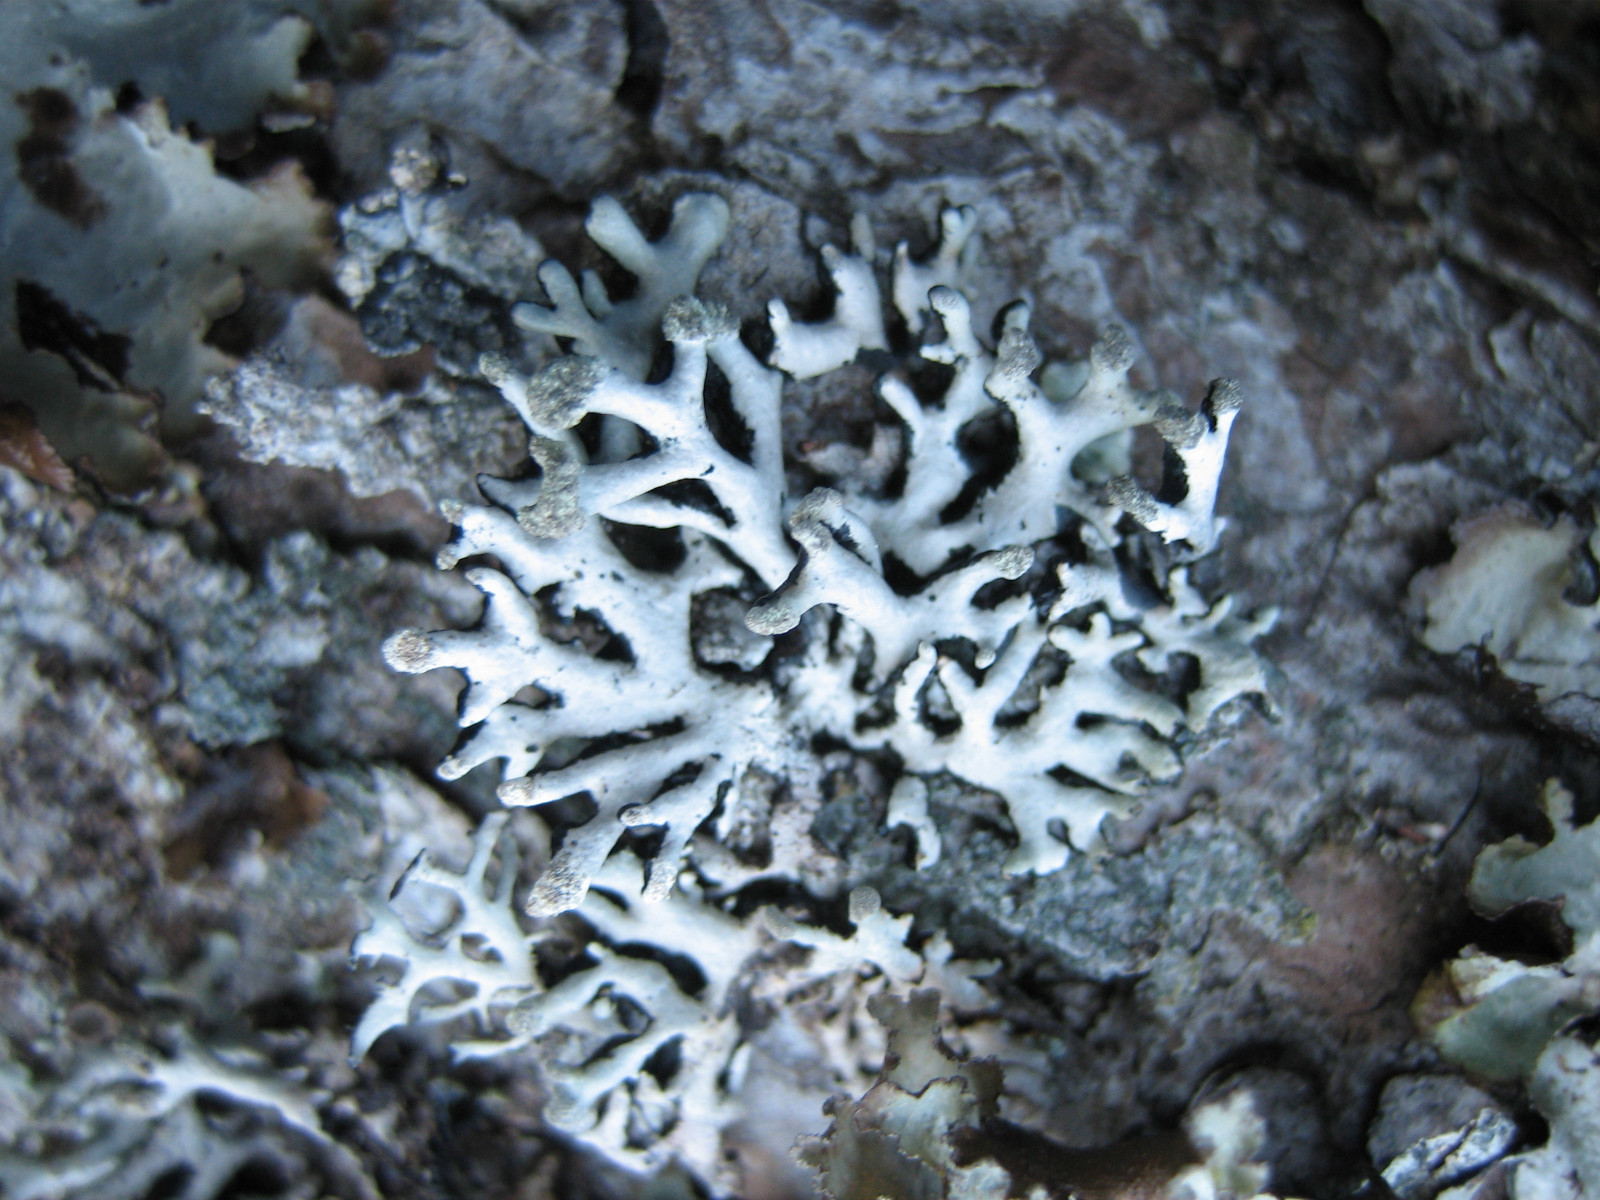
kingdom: Fungi
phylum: Ascomycota
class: Lecanoromycetes
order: Lecanorales
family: Parmeliaceae
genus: Hypogymnia
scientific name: Hypogymnia tubulosa
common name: finger-kvistlav
